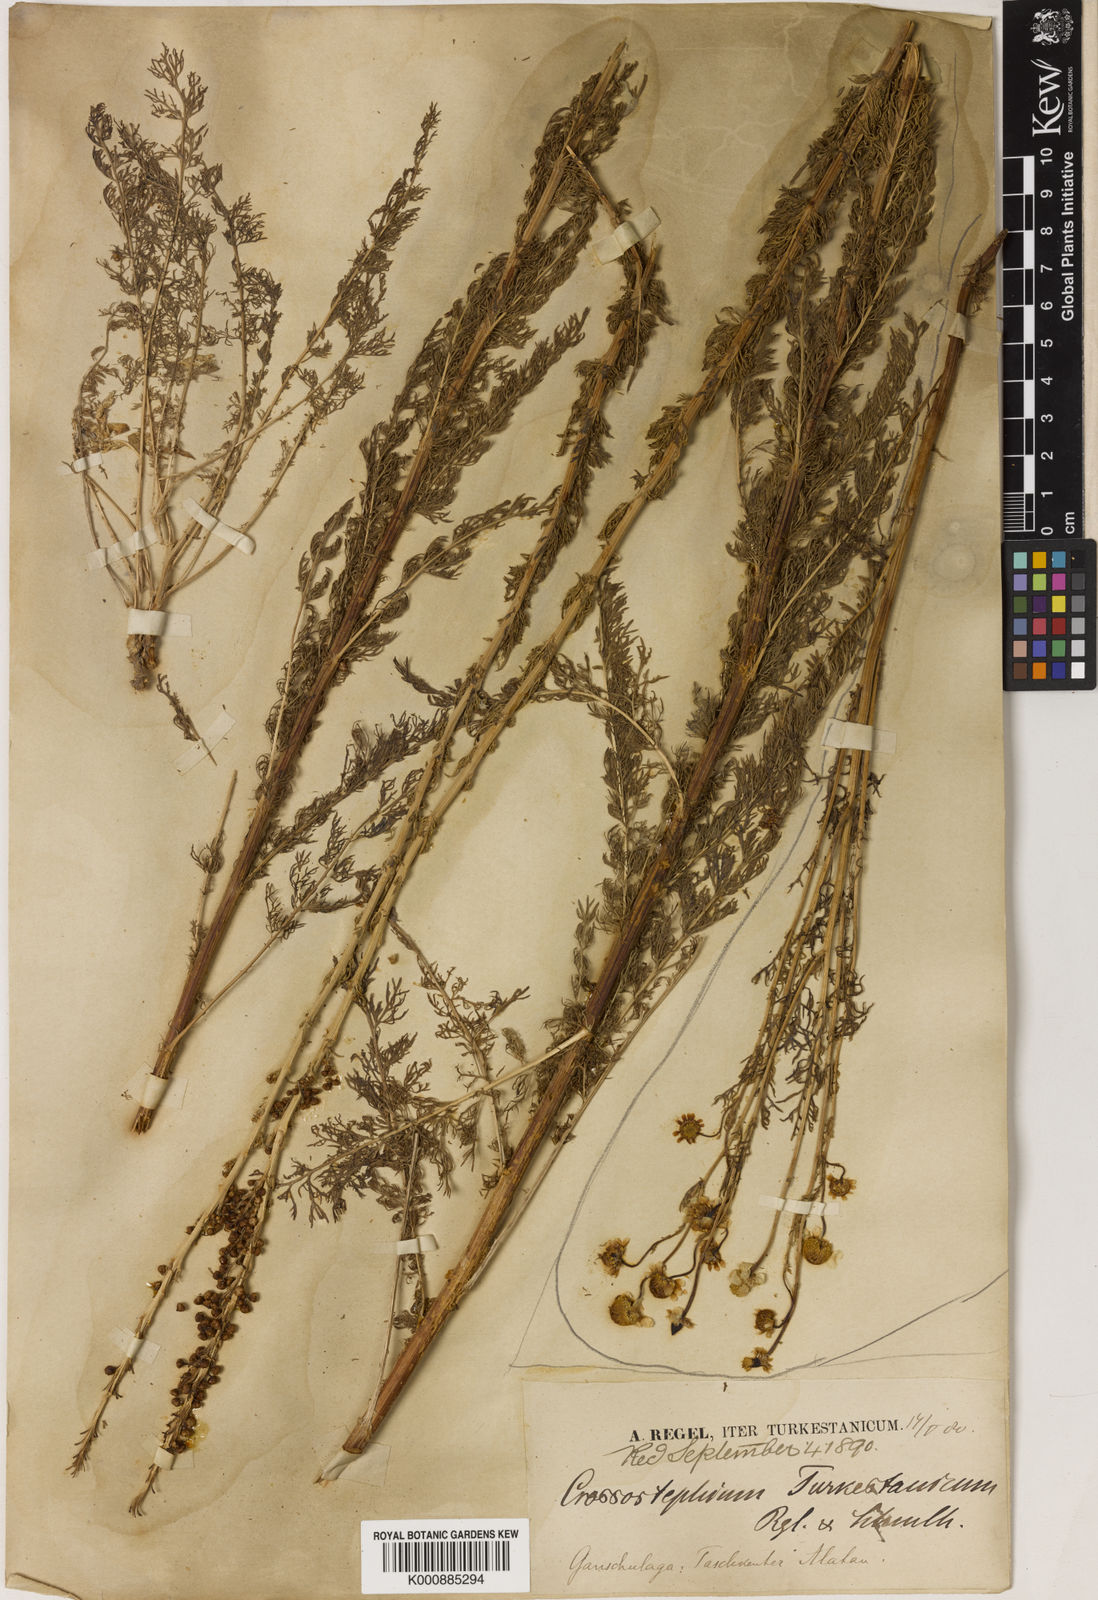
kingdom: Plantae
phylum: Tracheophyta
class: Magnoliopsida
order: Asterales
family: Asteraceae
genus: Lepidolopsis
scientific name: Lepidolopsis turkestanica
